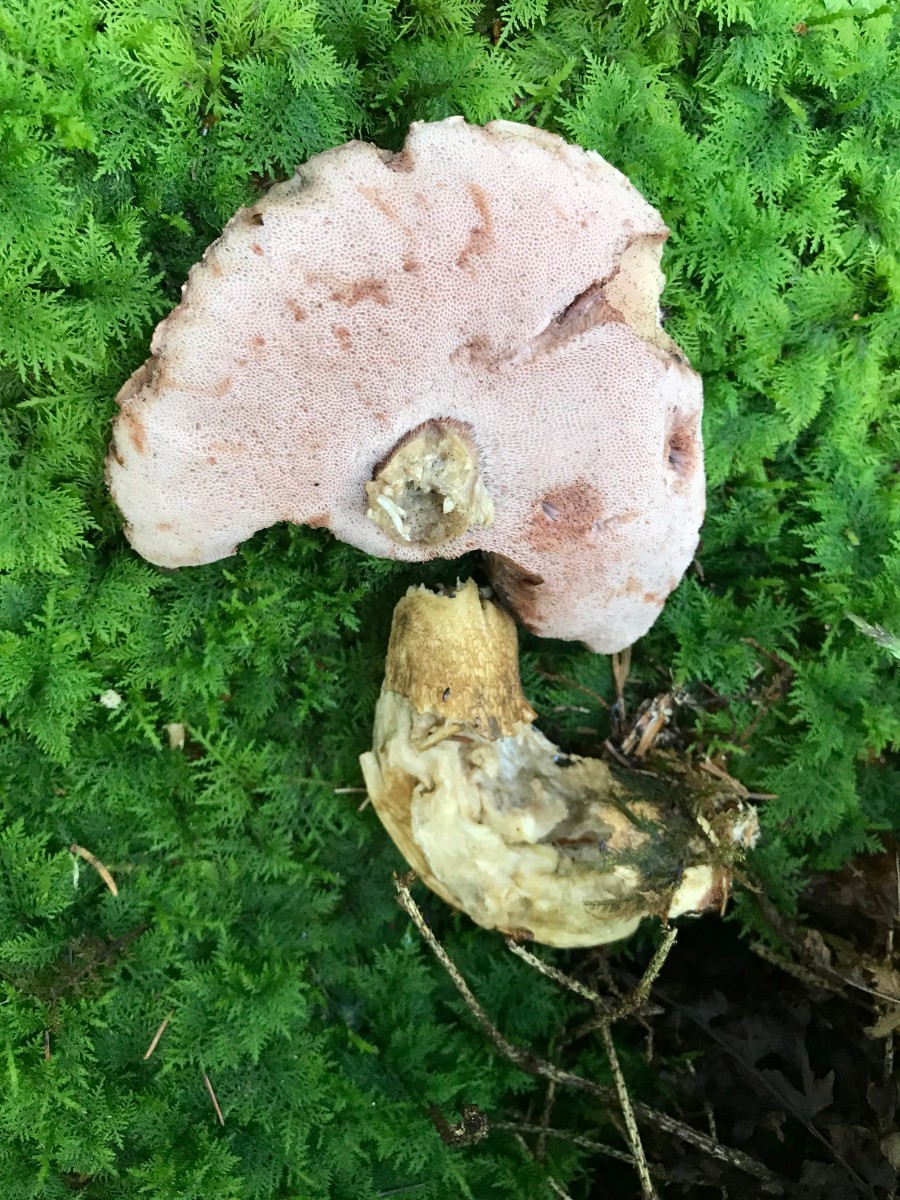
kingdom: Fungi
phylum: Basidiomycota
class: Agaricomycetes
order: Boletales
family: Boletaceae
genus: Tylopilus
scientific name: Tylopilus felleus
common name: galderørhat
